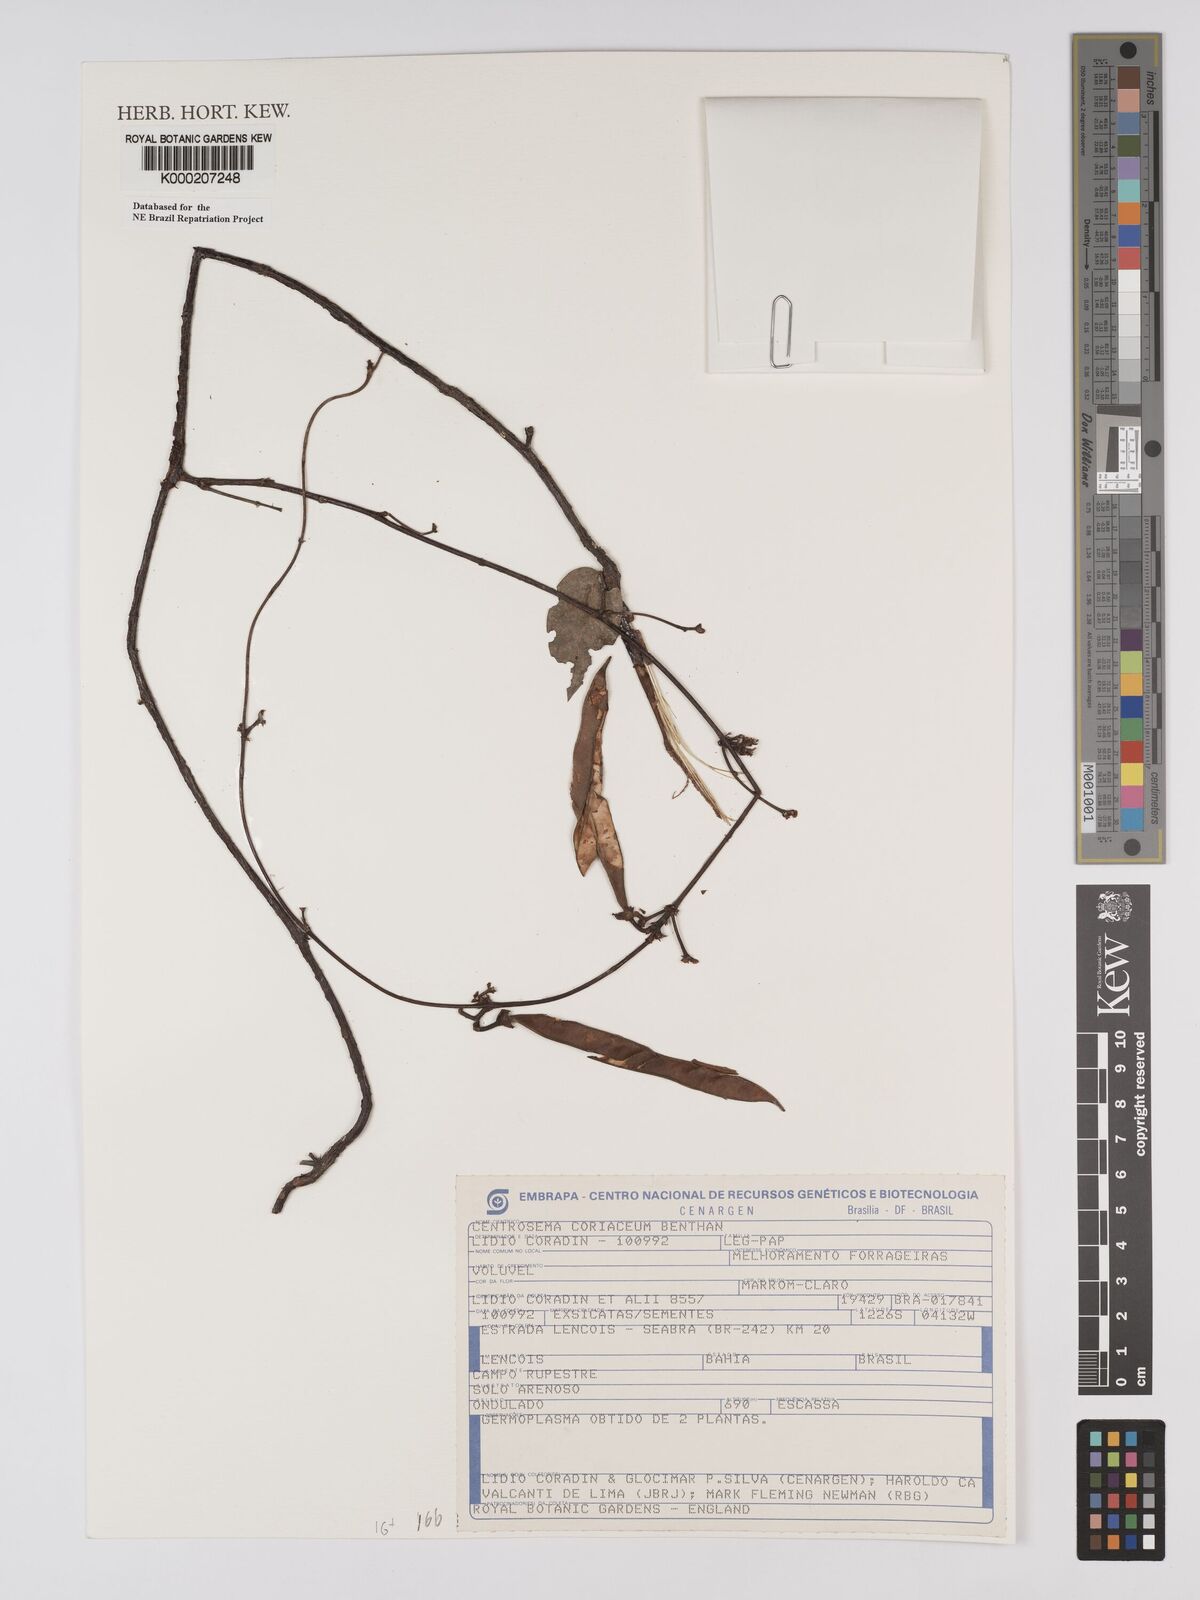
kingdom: Plantae
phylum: Tracheophyta
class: Magnoliopsida
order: Fabales
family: Fabaceae
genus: Centrosema
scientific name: Centrosema coriaceum
